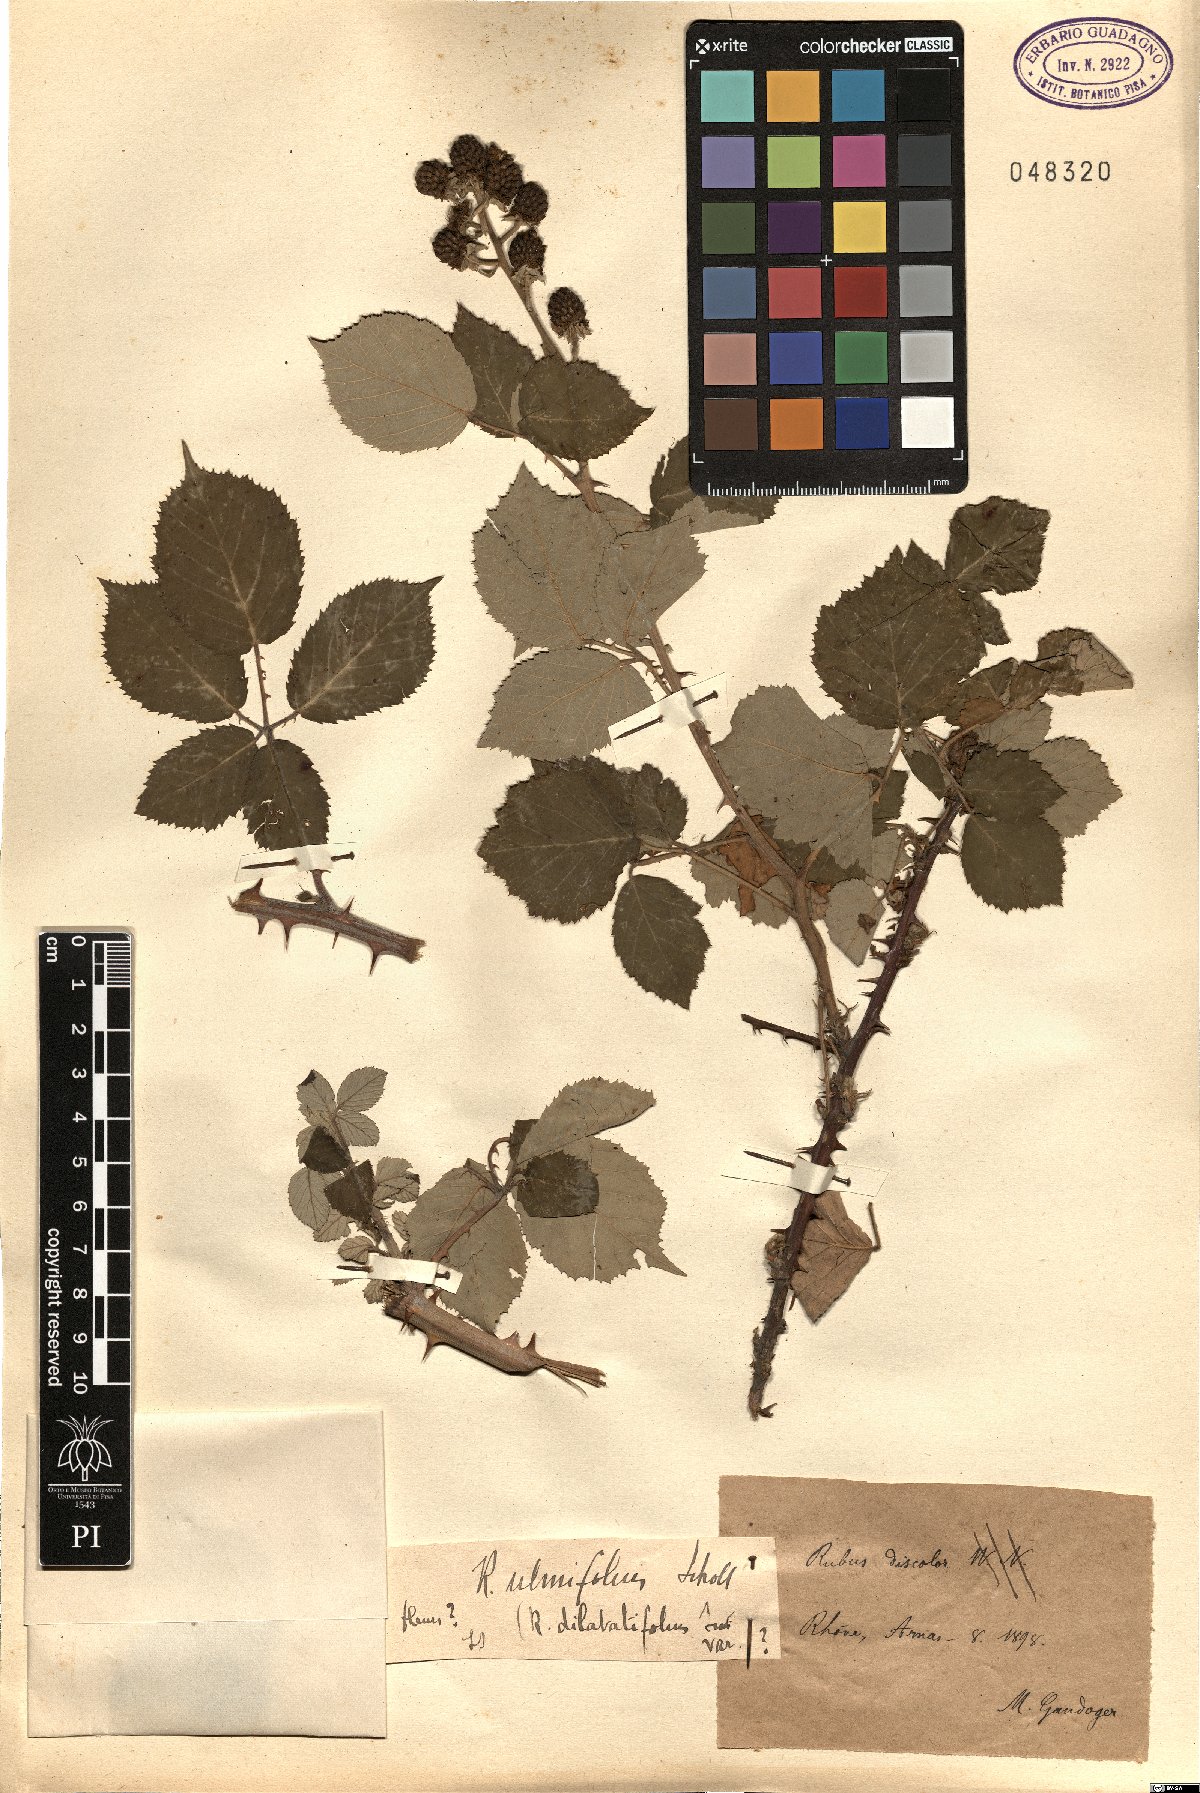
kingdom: Plantae
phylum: Tracheophyta
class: Magnoliopsida
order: Rosales
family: Rosaceae
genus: Rubus
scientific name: Rubus ulmifolius
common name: Elmleaf blackberry
